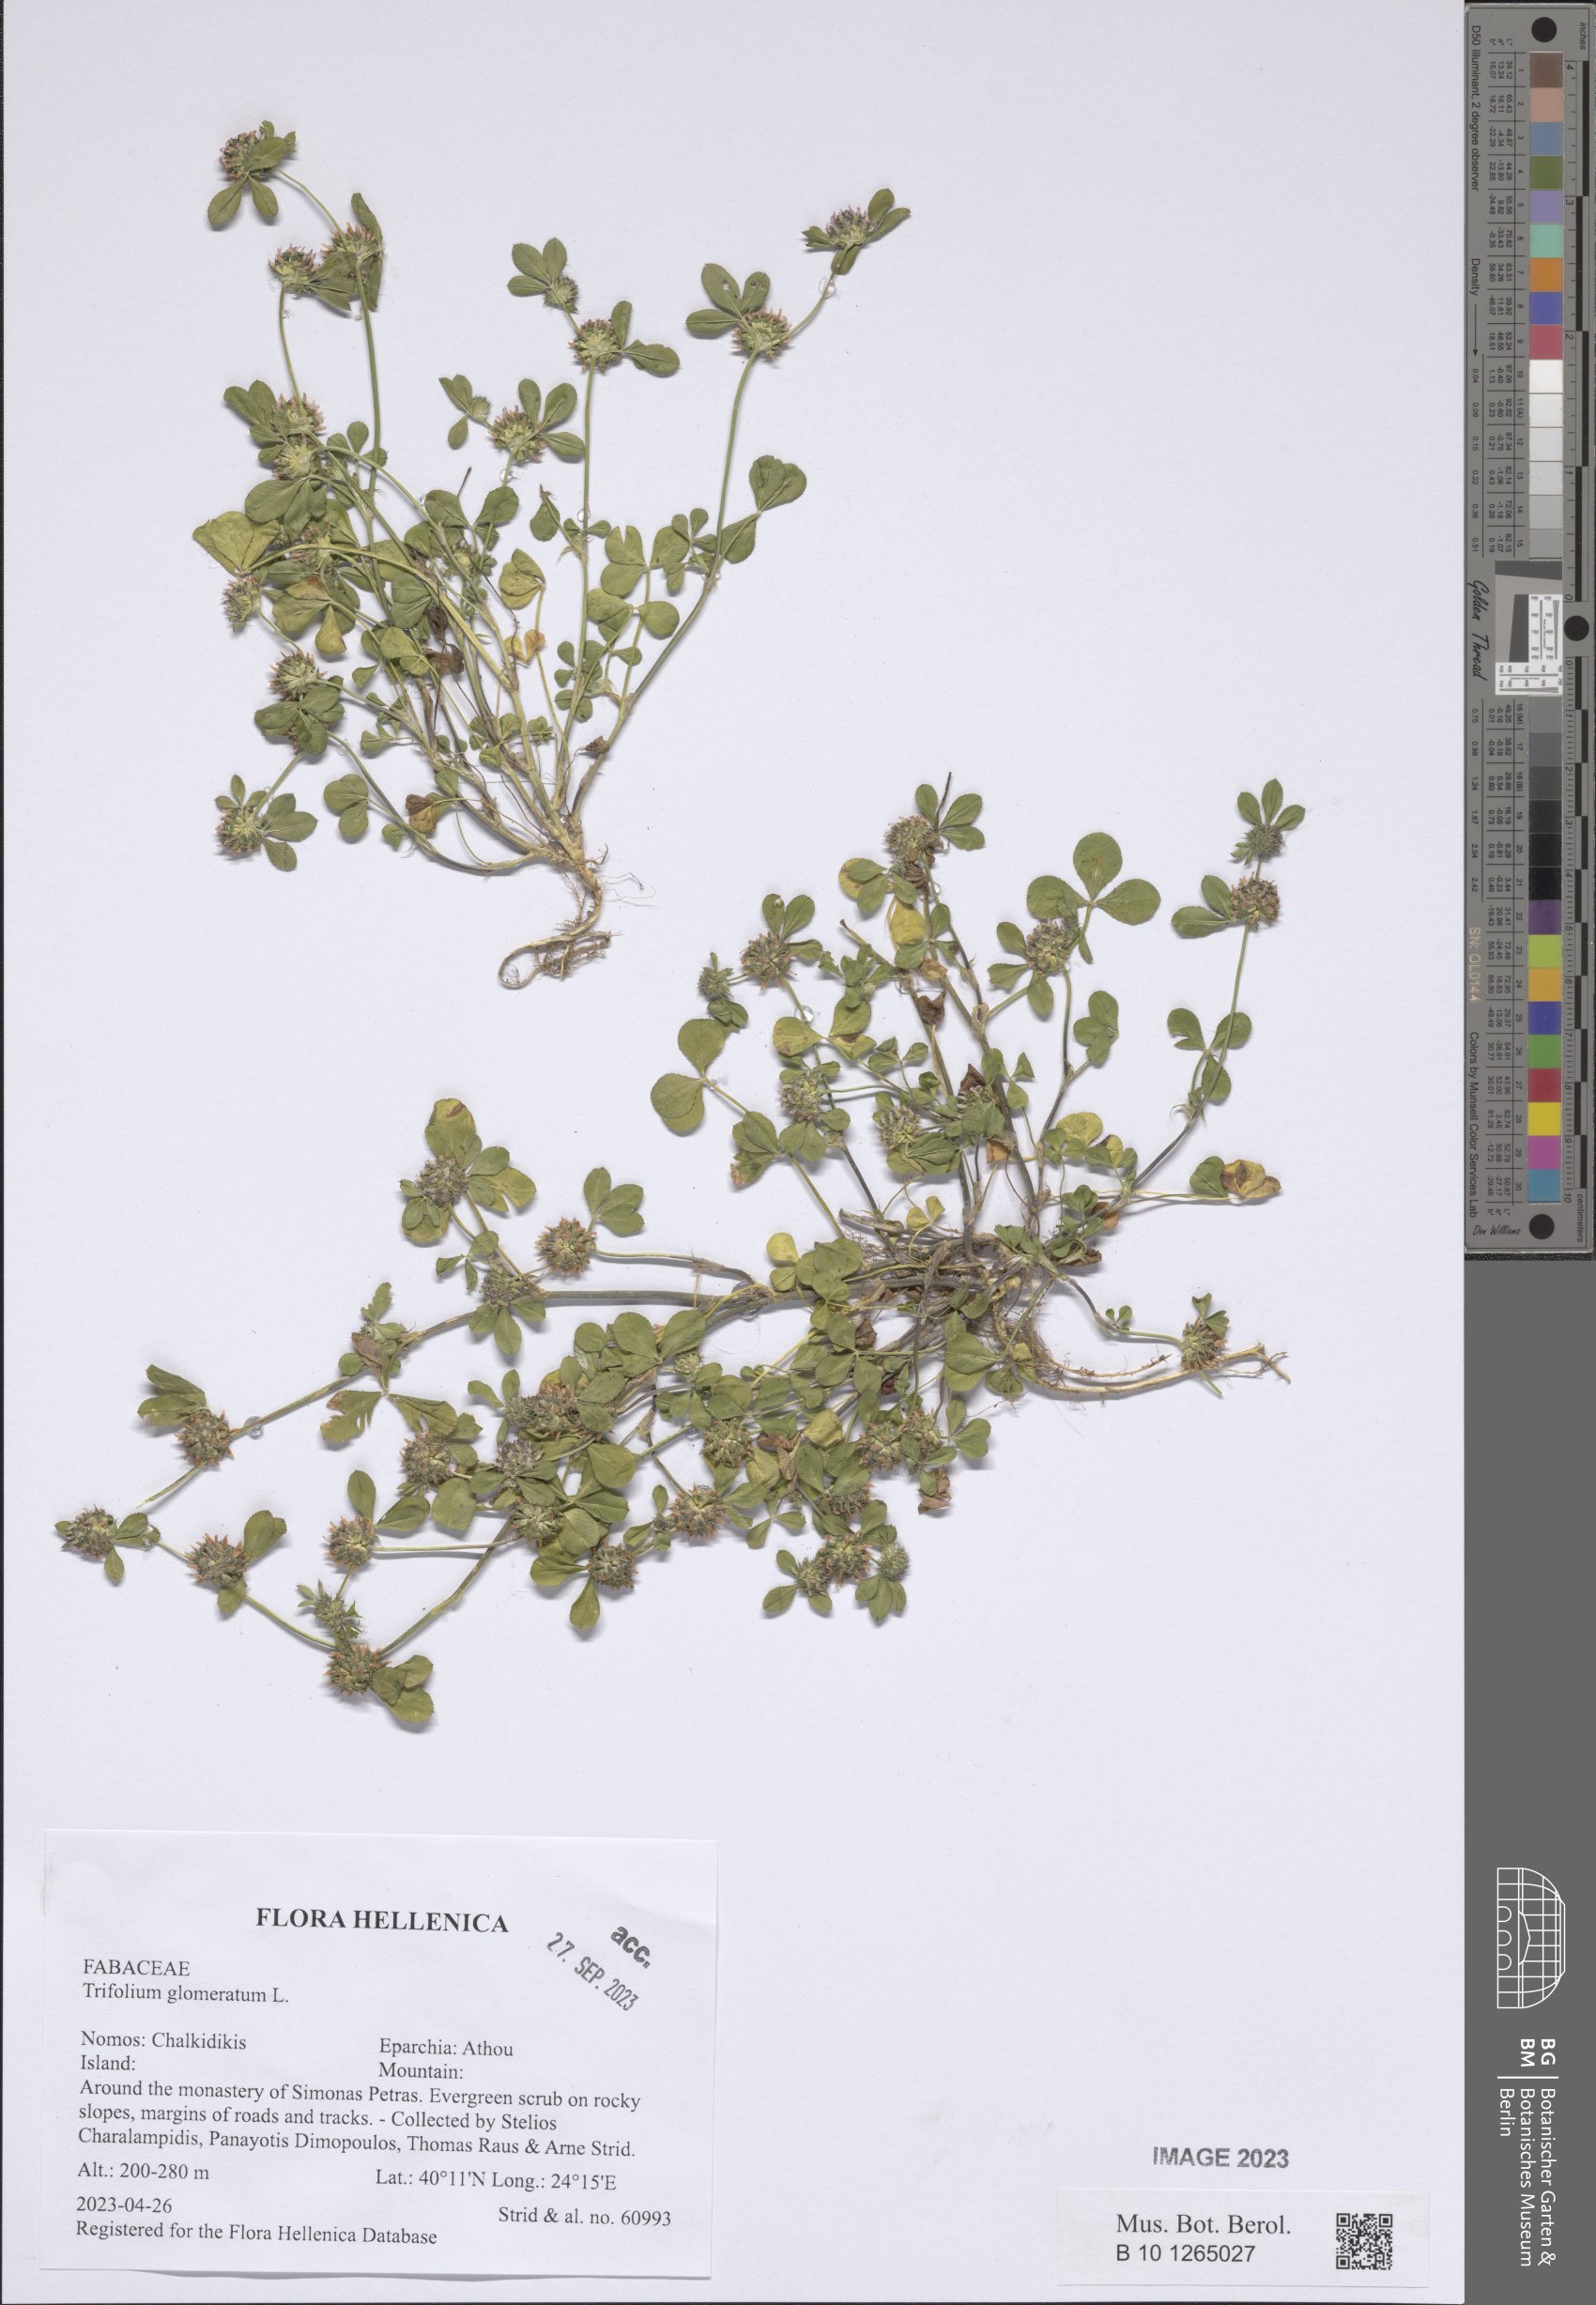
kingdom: Plantae
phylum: Tracheophyta
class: Magnoliopsida
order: Fabales
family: Fabaceae
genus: Trifolium
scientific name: Trifolium glomeratum
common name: Clustered clover
